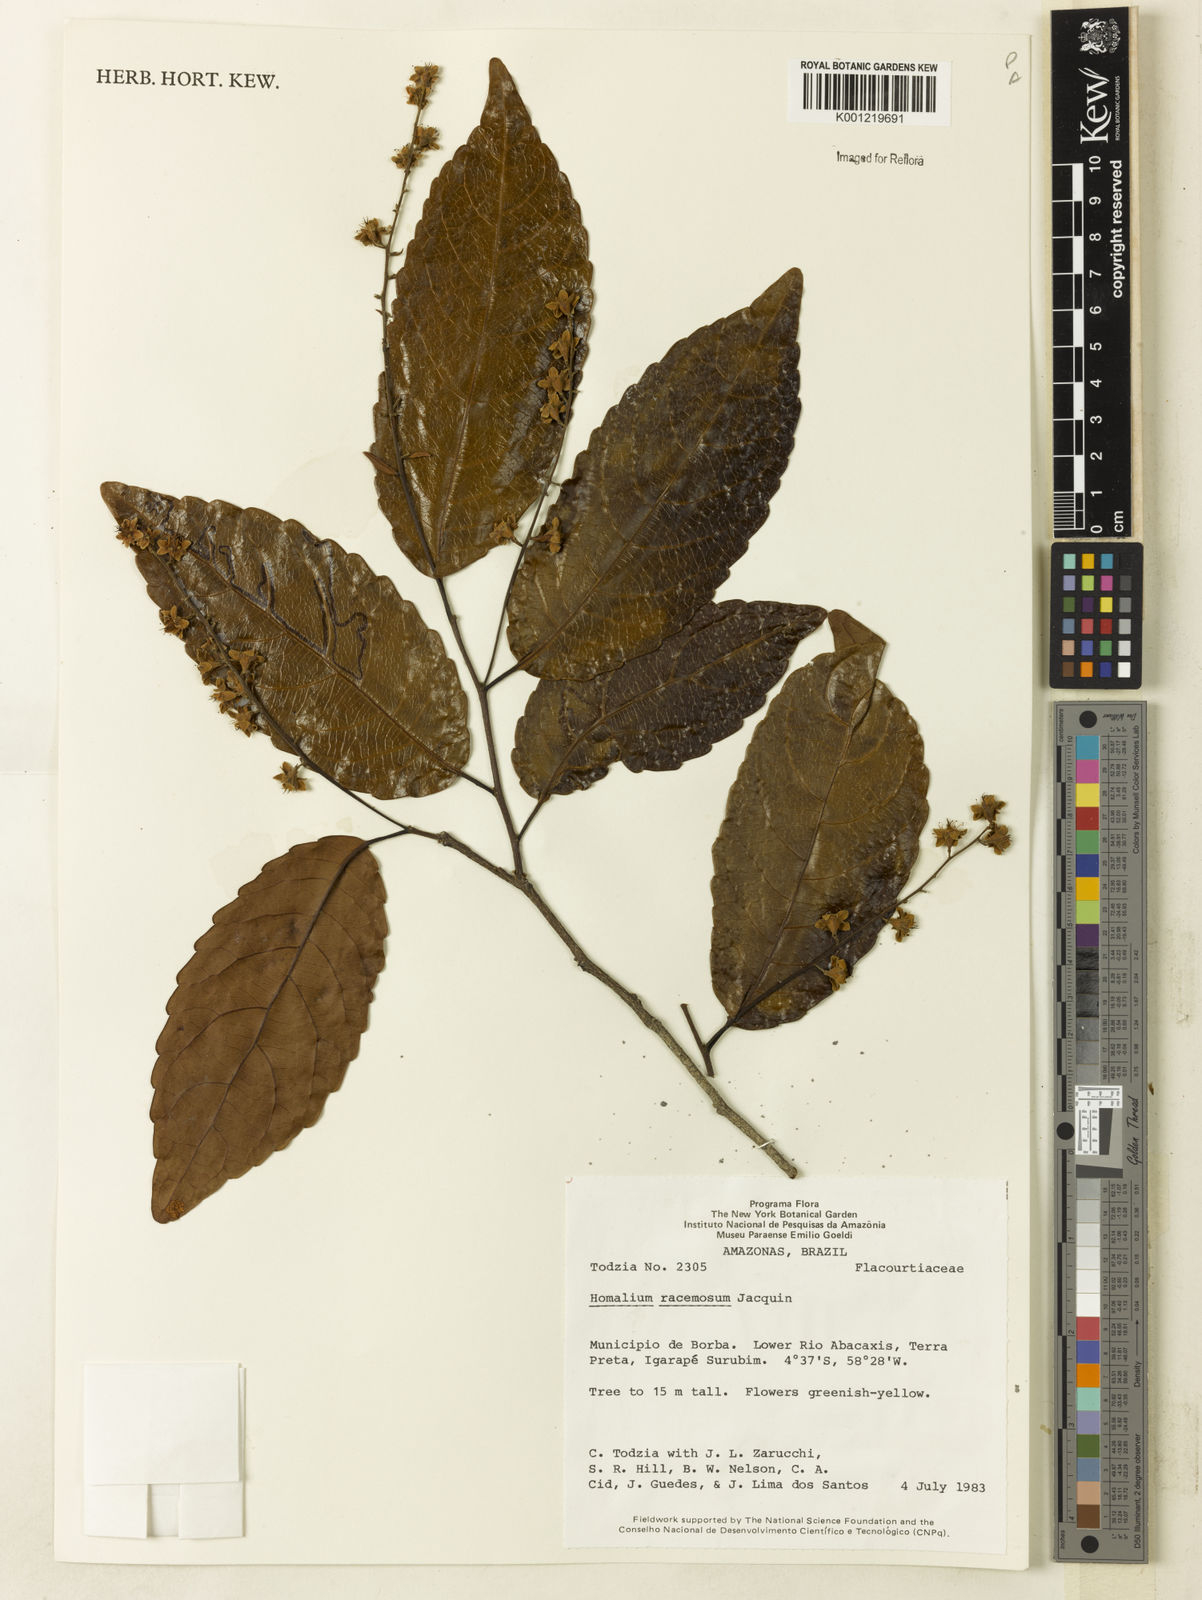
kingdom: Plantae
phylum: Tracheophyta
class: Magnoliopsida
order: Malpighiales
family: Salicaceae
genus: Homalium
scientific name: Homalium racemosum
